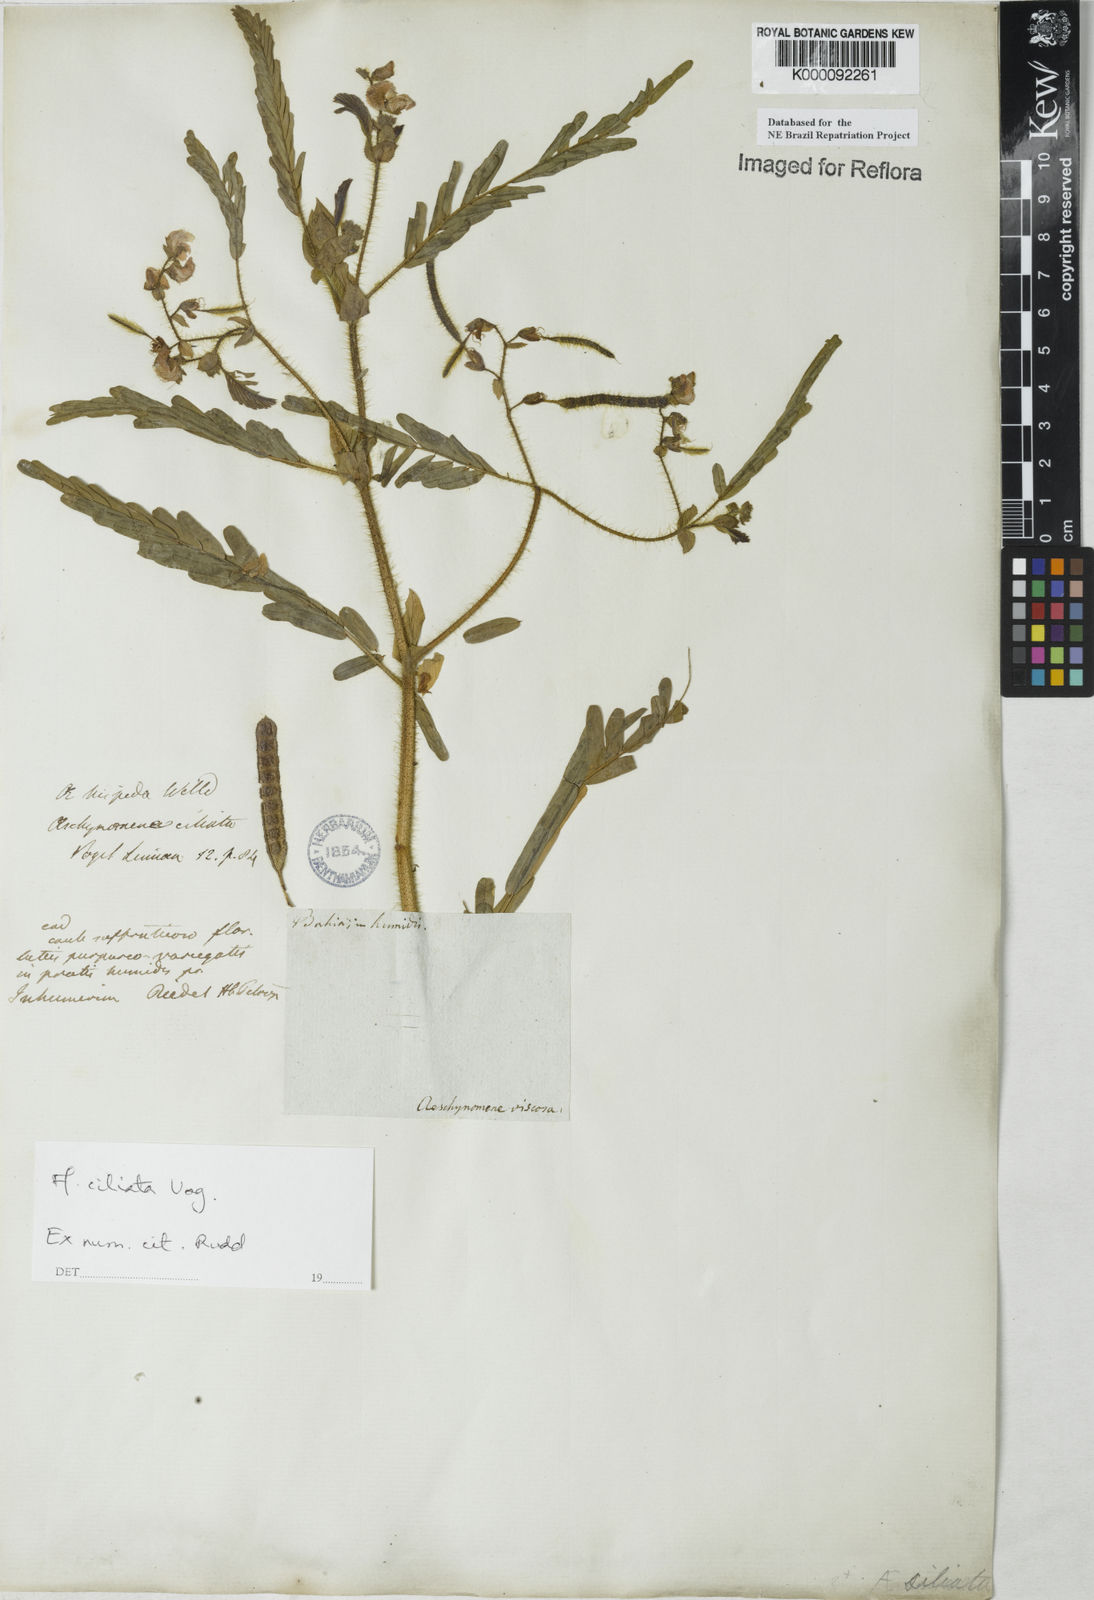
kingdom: Plantae
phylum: Tracheophyta
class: Magnoliopsida
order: Fabales
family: Fabaceae
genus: Aeschynomene
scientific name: Aeschynomene ciliata
